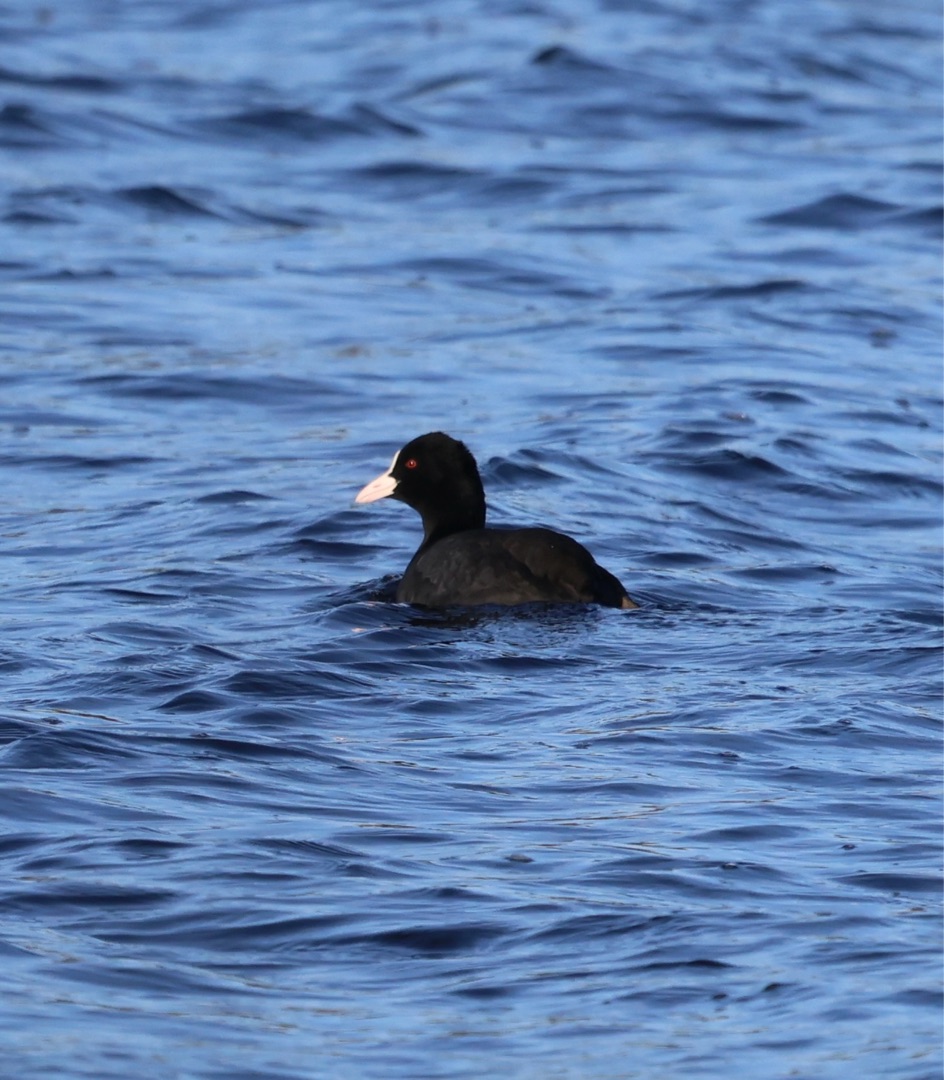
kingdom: Animalia
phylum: Chordata
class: Aves
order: Gruiformes
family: Rallidae
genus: Fulica
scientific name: Fulica atra
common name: Blishøne
